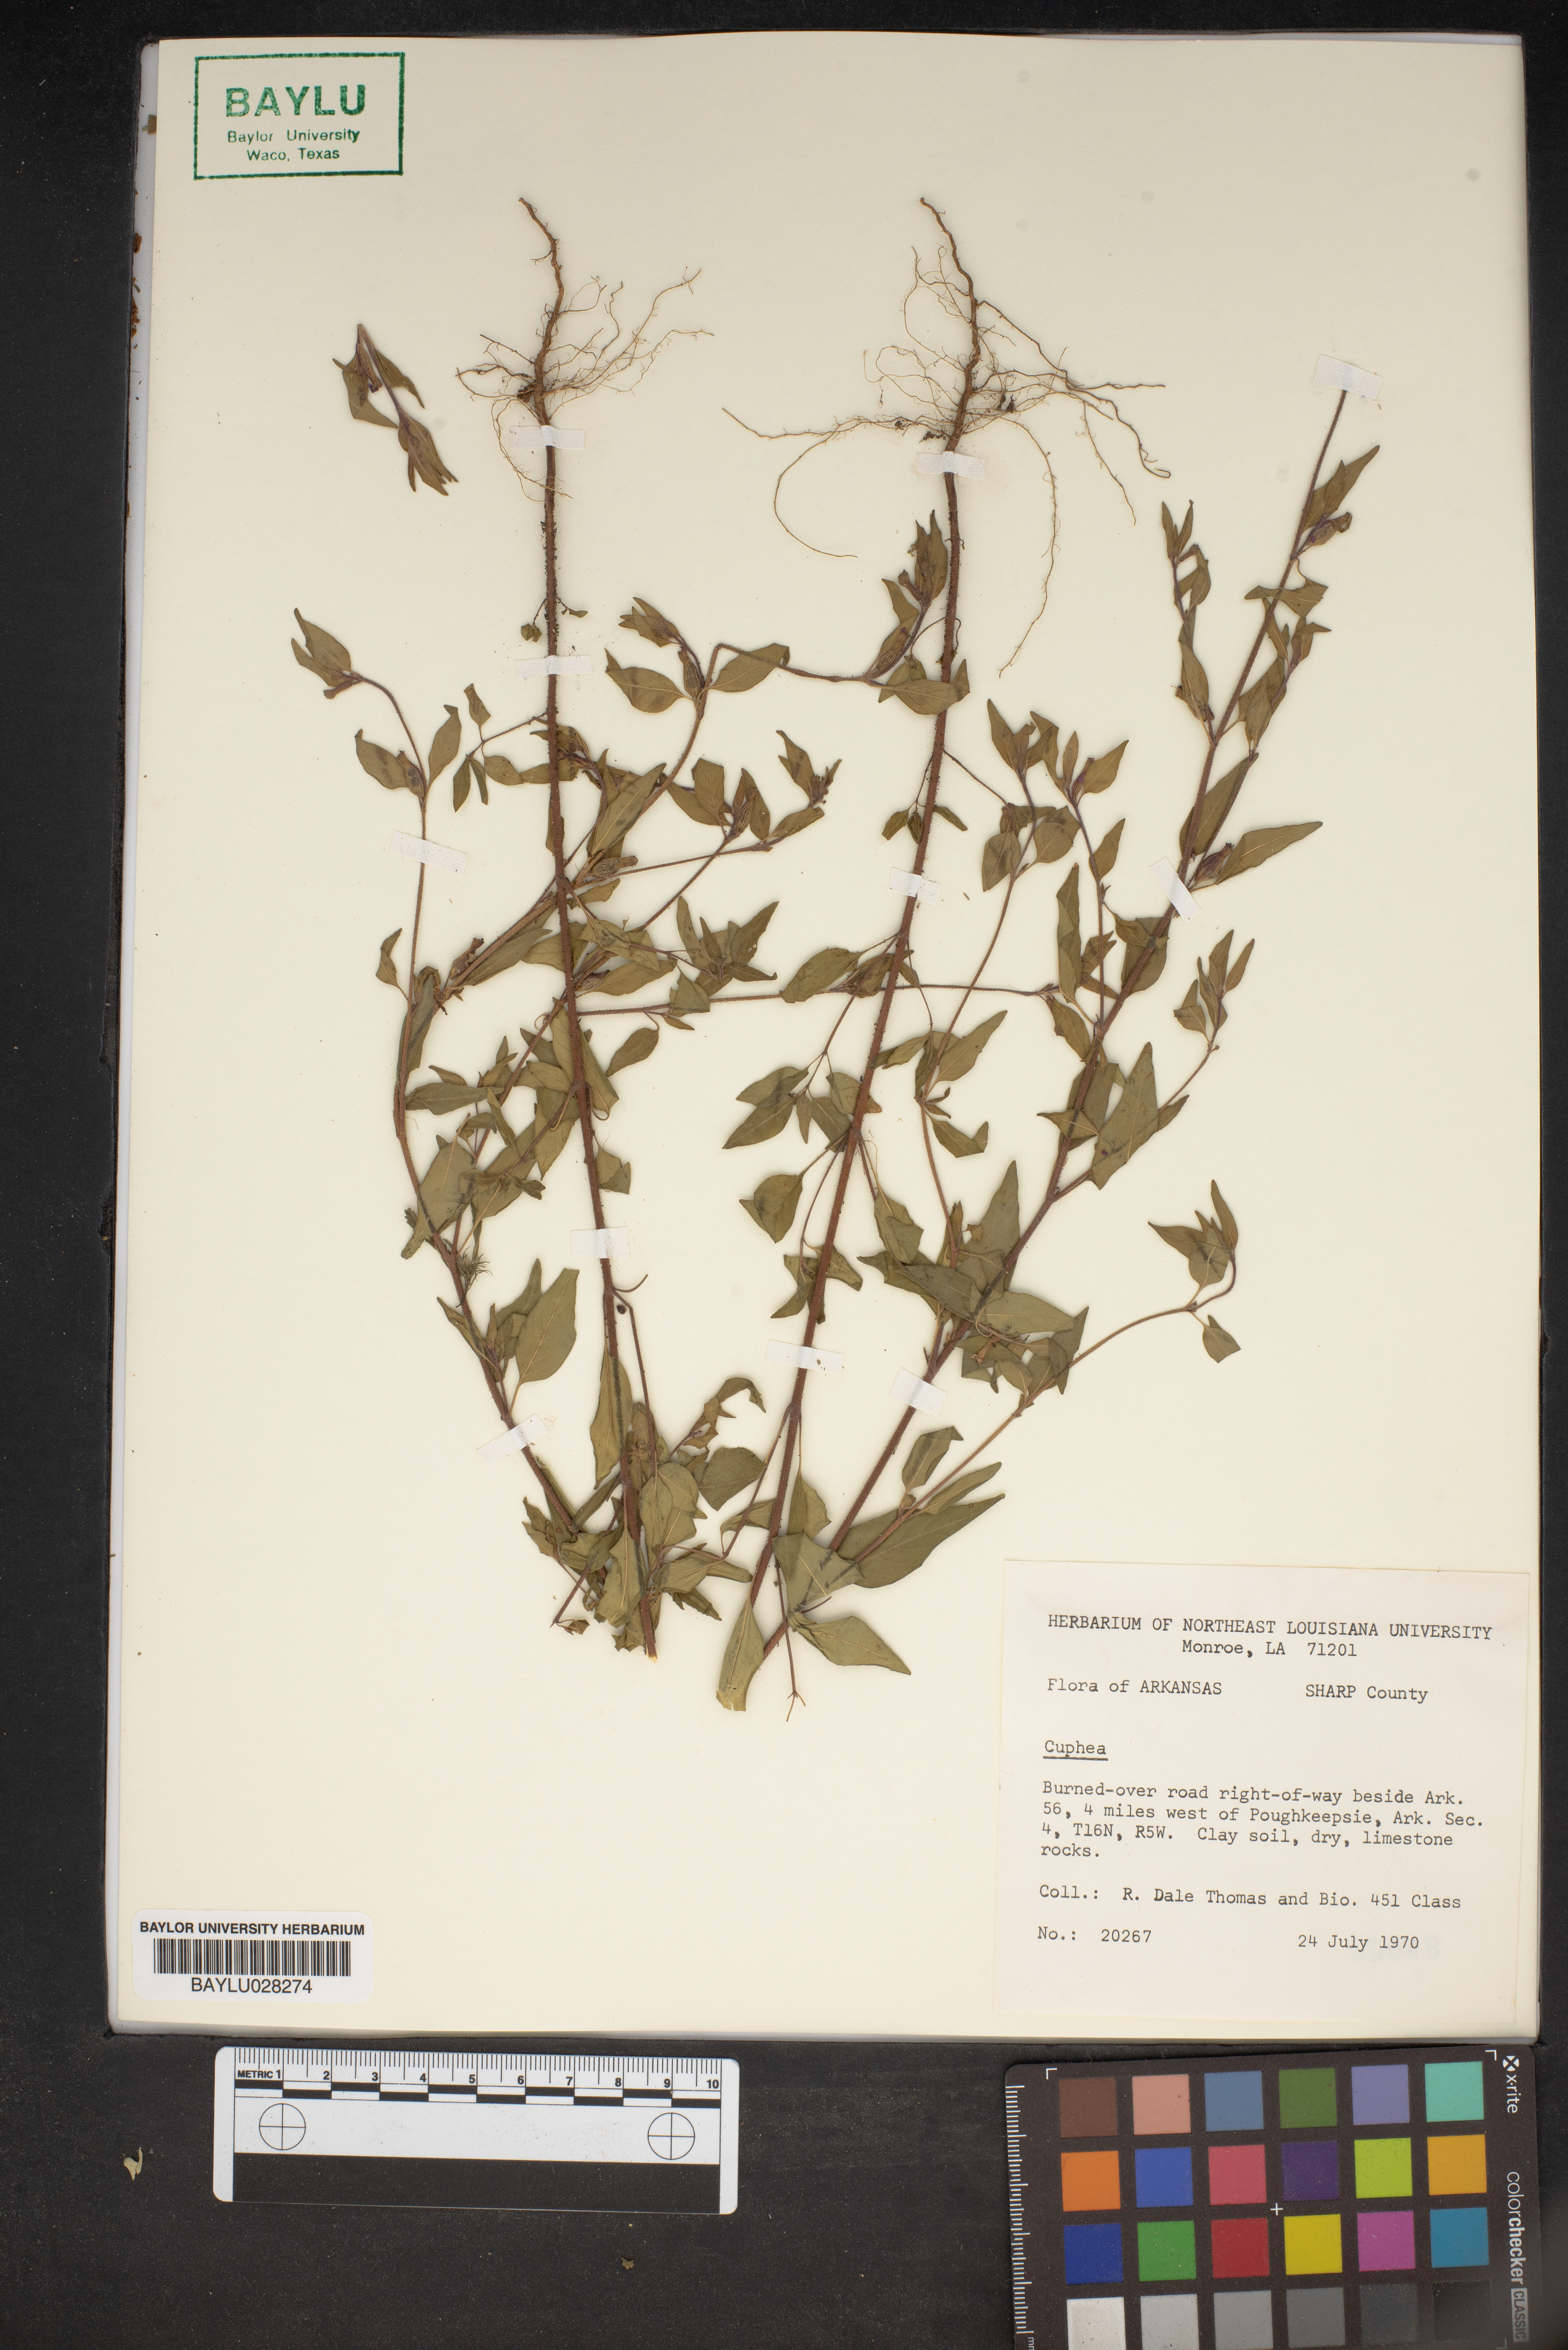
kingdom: Plantae
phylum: Tracheophyta
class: Magnoliopsida
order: Myrtales
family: Lythraceae
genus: Cuphea
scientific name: Cuphea
